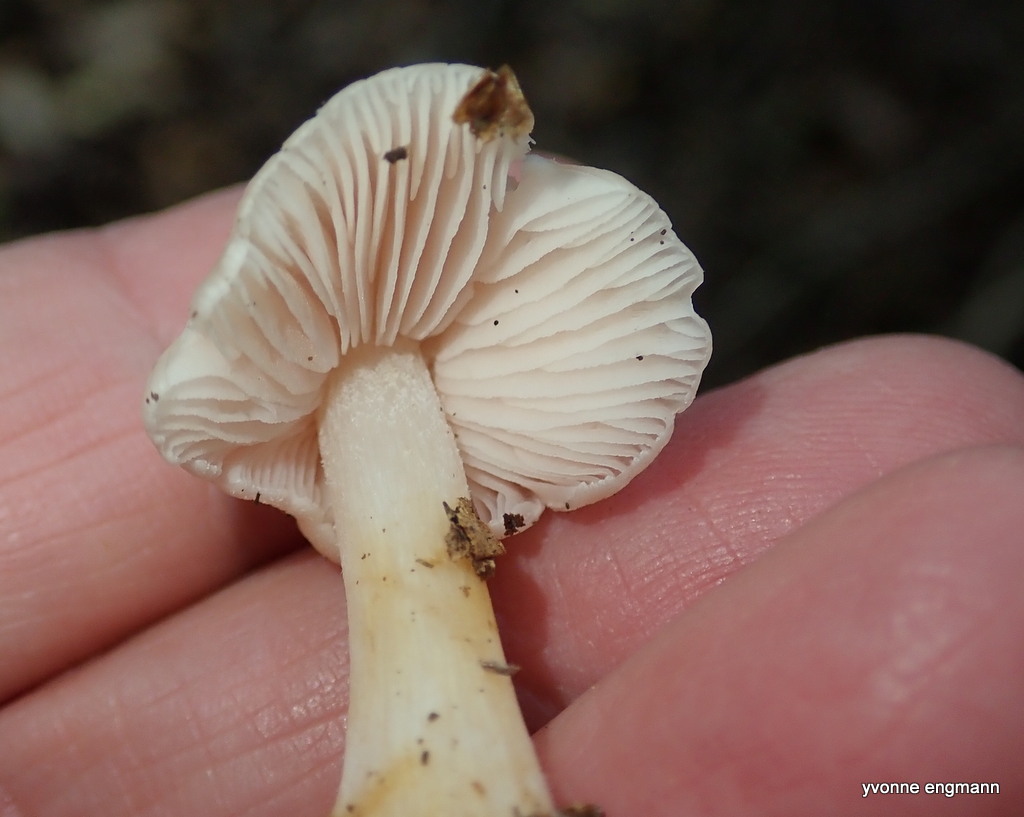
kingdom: Fungi
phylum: Basidiomycota
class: Agaricomycetes
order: Agaricales
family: Mycenaceae
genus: Mycena
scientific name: Mycena rosea
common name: rosa huesvamp
